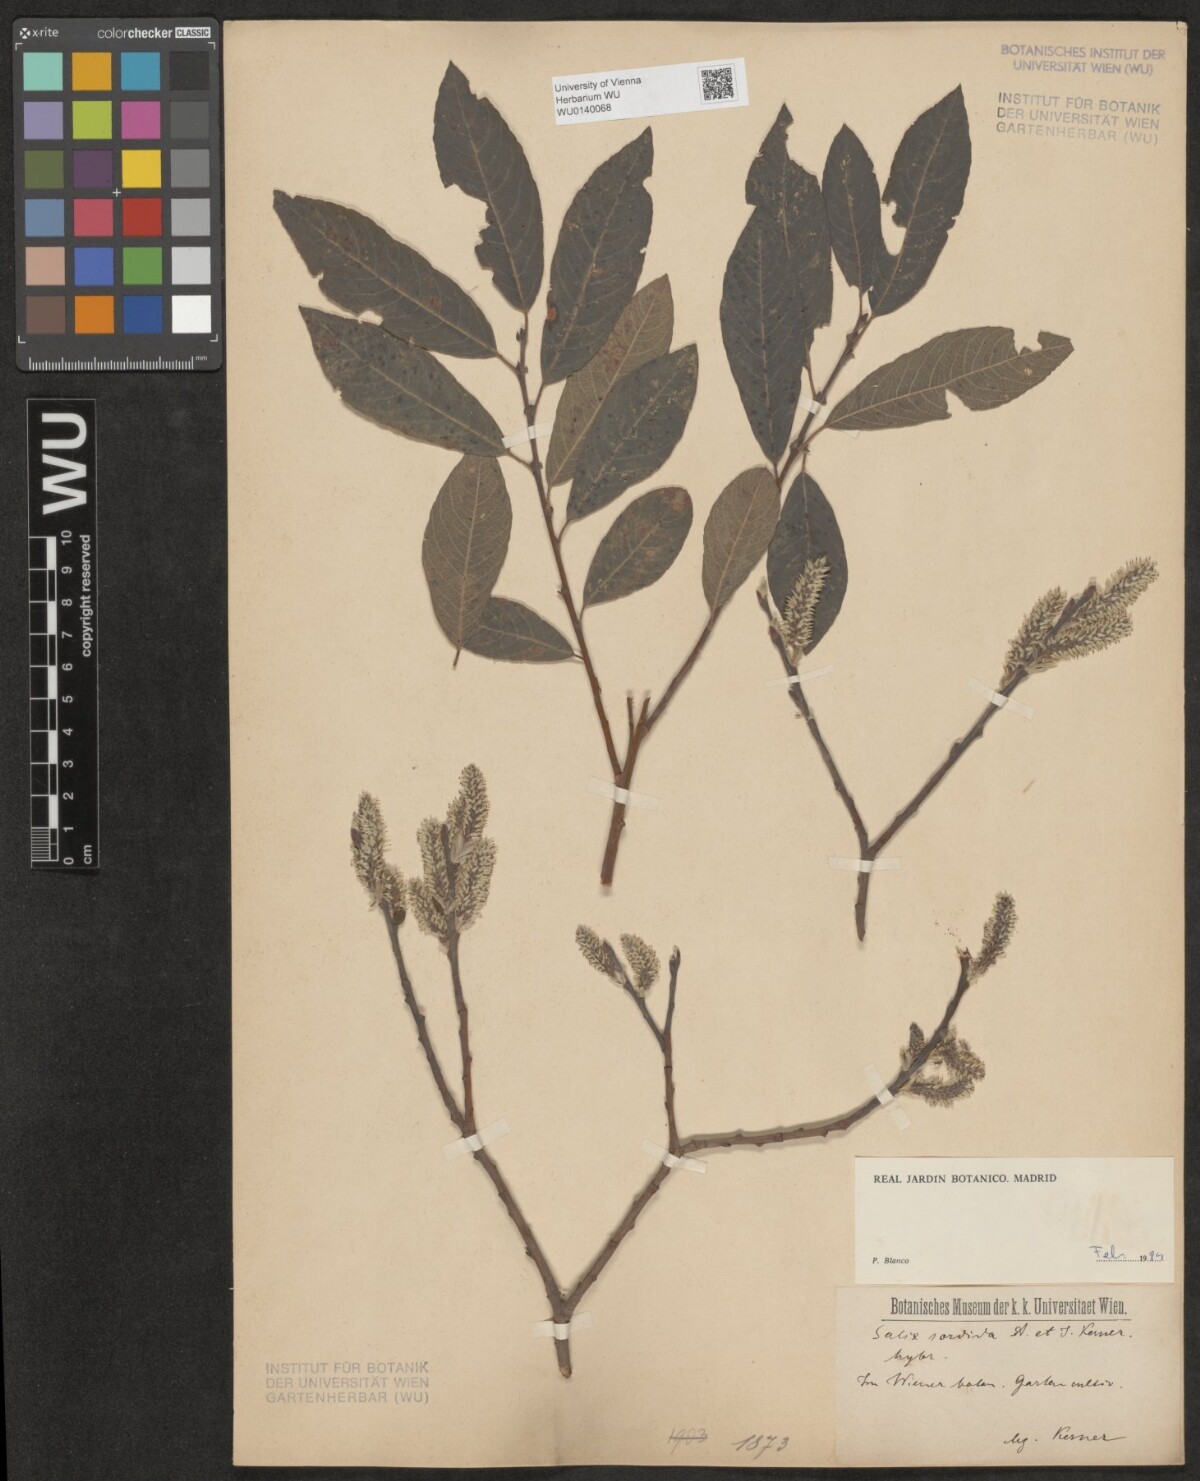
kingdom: Plantae
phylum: Tracheophyta
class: Magnoliopsida
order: Malpighiales
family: Salicaceae
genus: Salix
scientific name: Salix sordida
